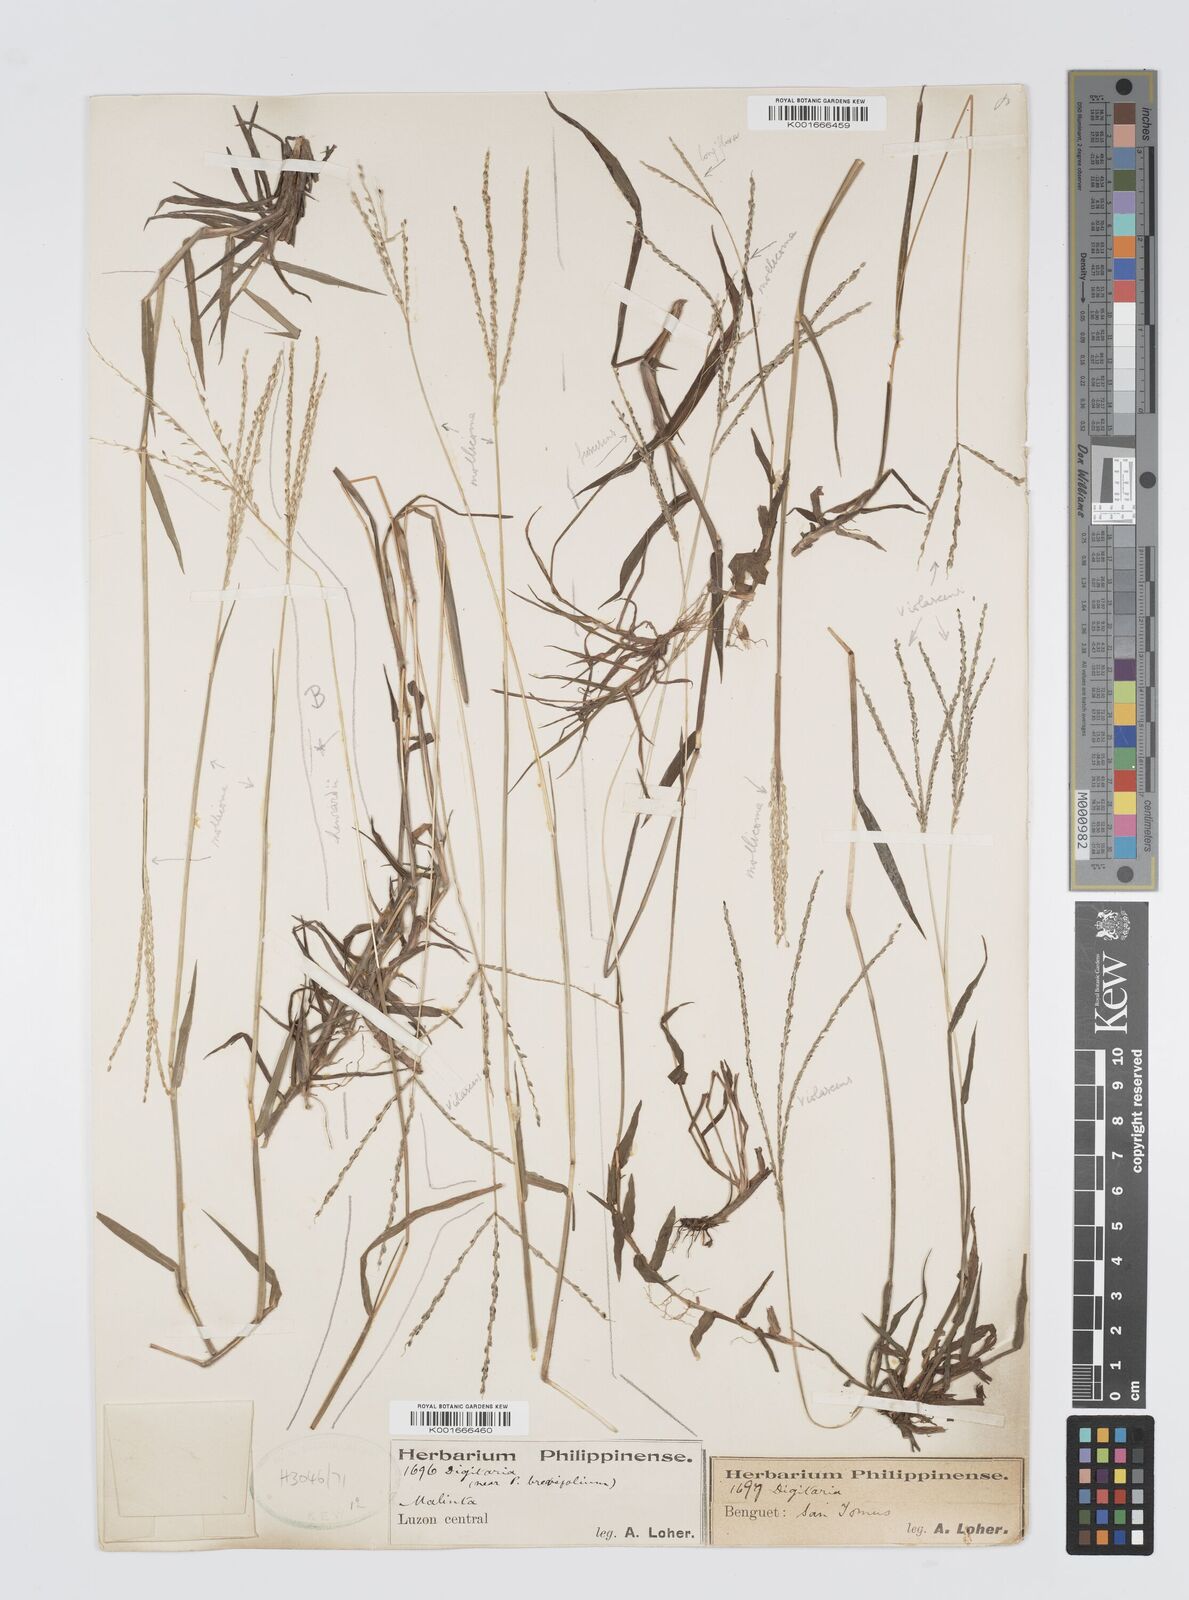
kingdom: Plantae
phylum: Tracheophyta
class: Liliopsida
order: Poales
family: Poaceae
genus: Digitaria
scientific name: Digitaria violascens
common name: Violet crabgrass
